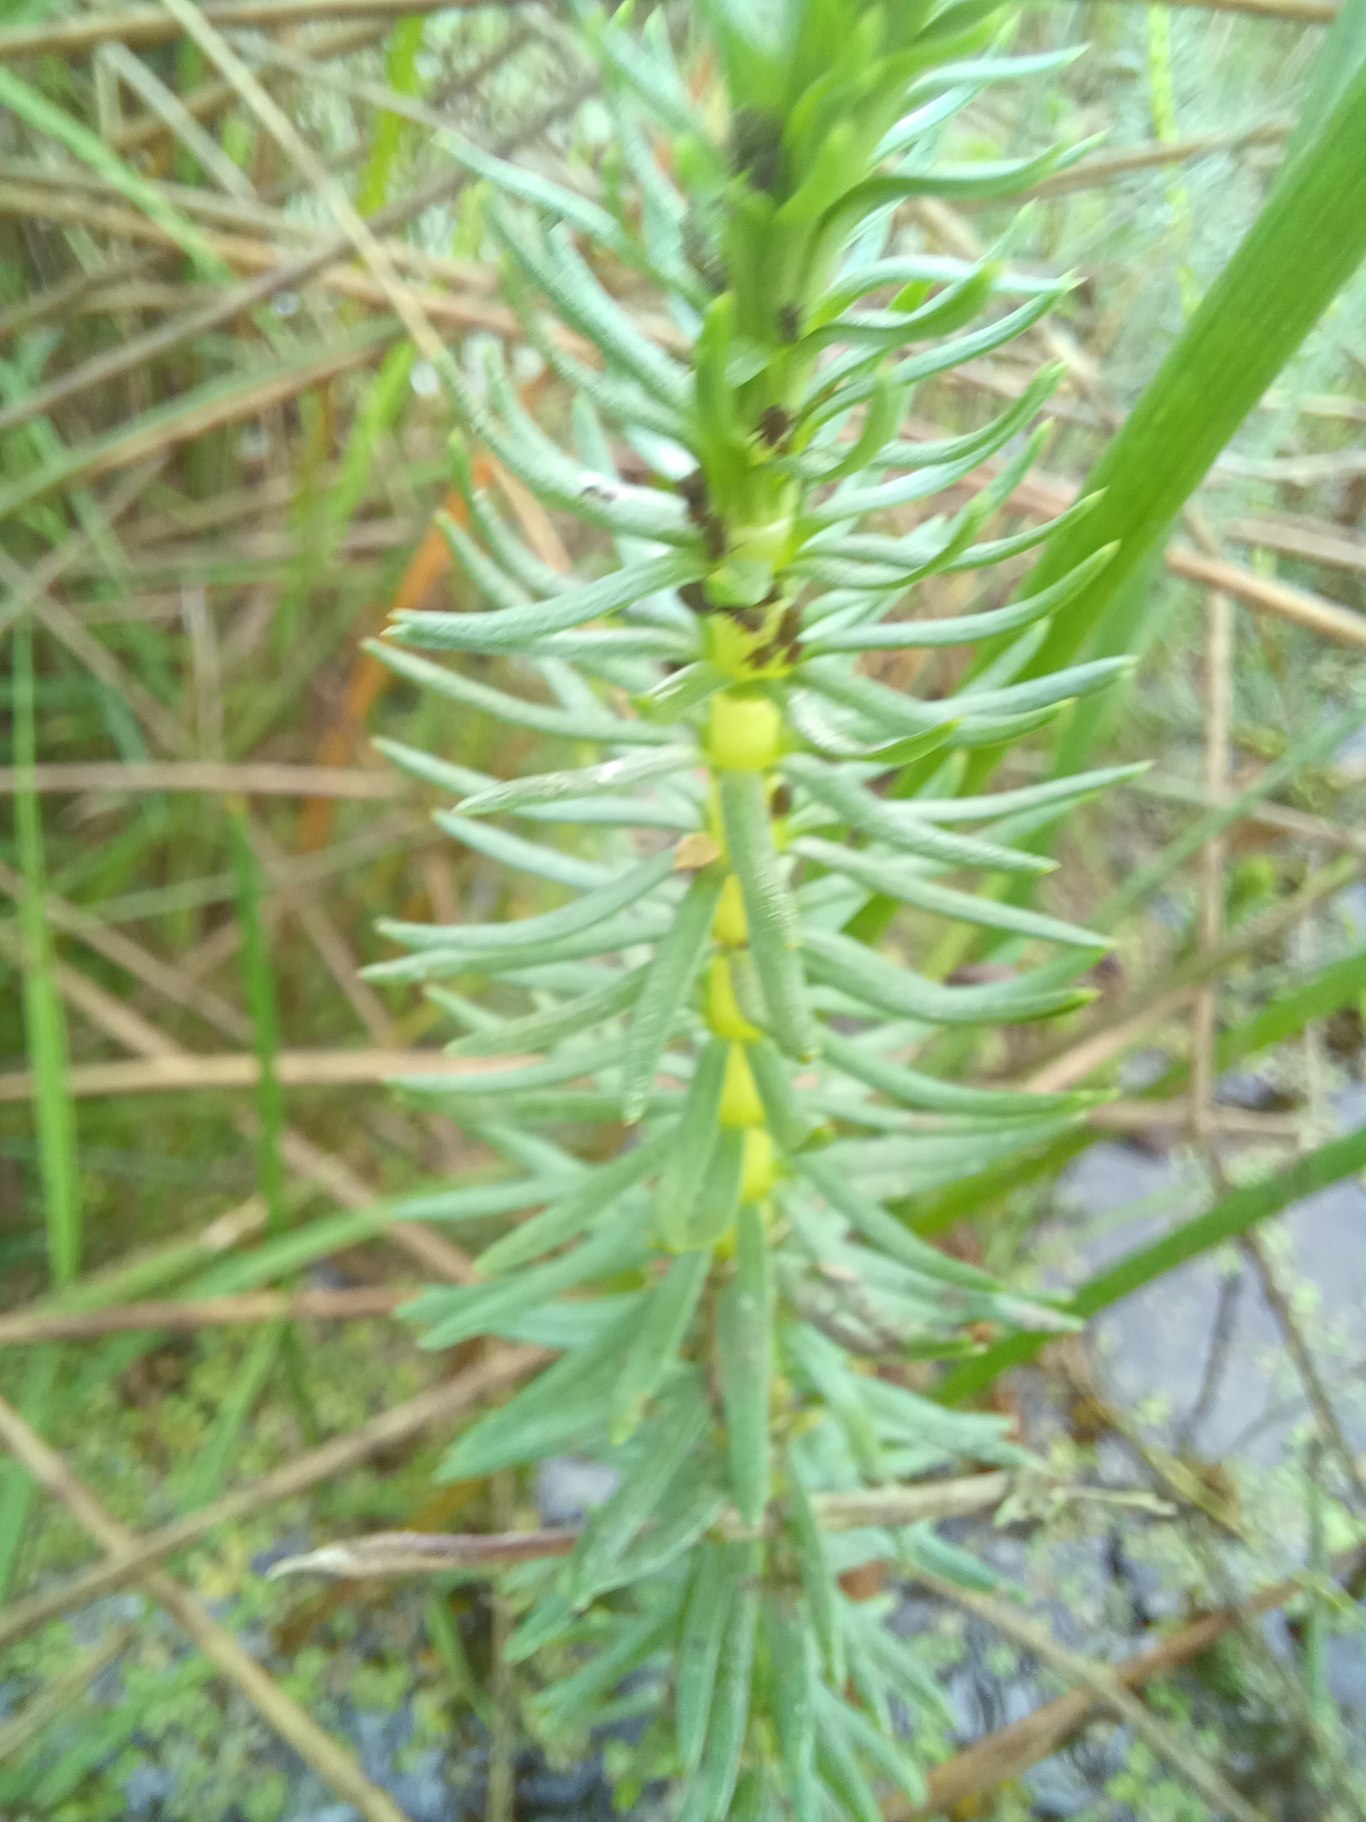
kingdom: Plantae
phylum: Tracheophyta
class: Magnoliopsida
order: Lamiales
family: Plantaginaceae
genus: Hippuris
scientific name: Hippuris vulgaris
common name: Vandspir
